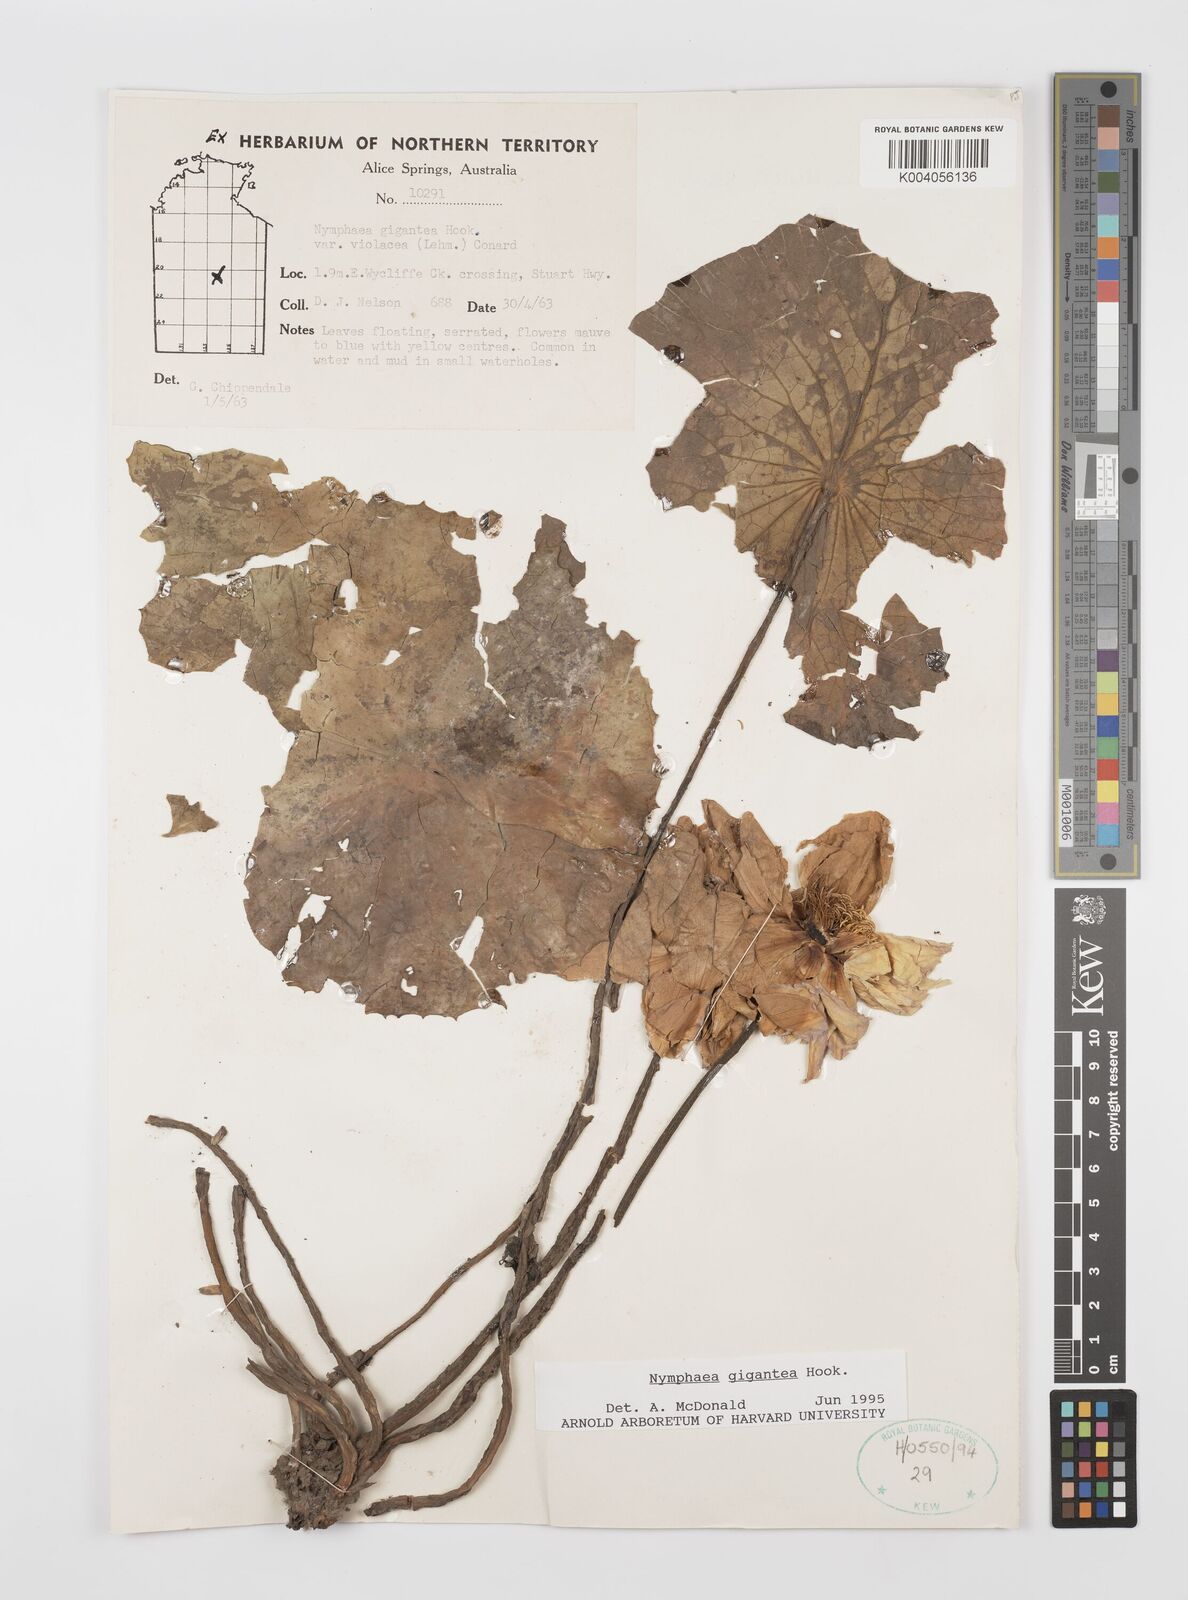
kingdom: Plantae
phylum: Tracheophyta
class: Magnoliopsida
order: Nymphaeales
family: Nymphaeaceae
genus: Nymphaea
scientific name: Nymphaea gigantea
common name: Giant water-lily
